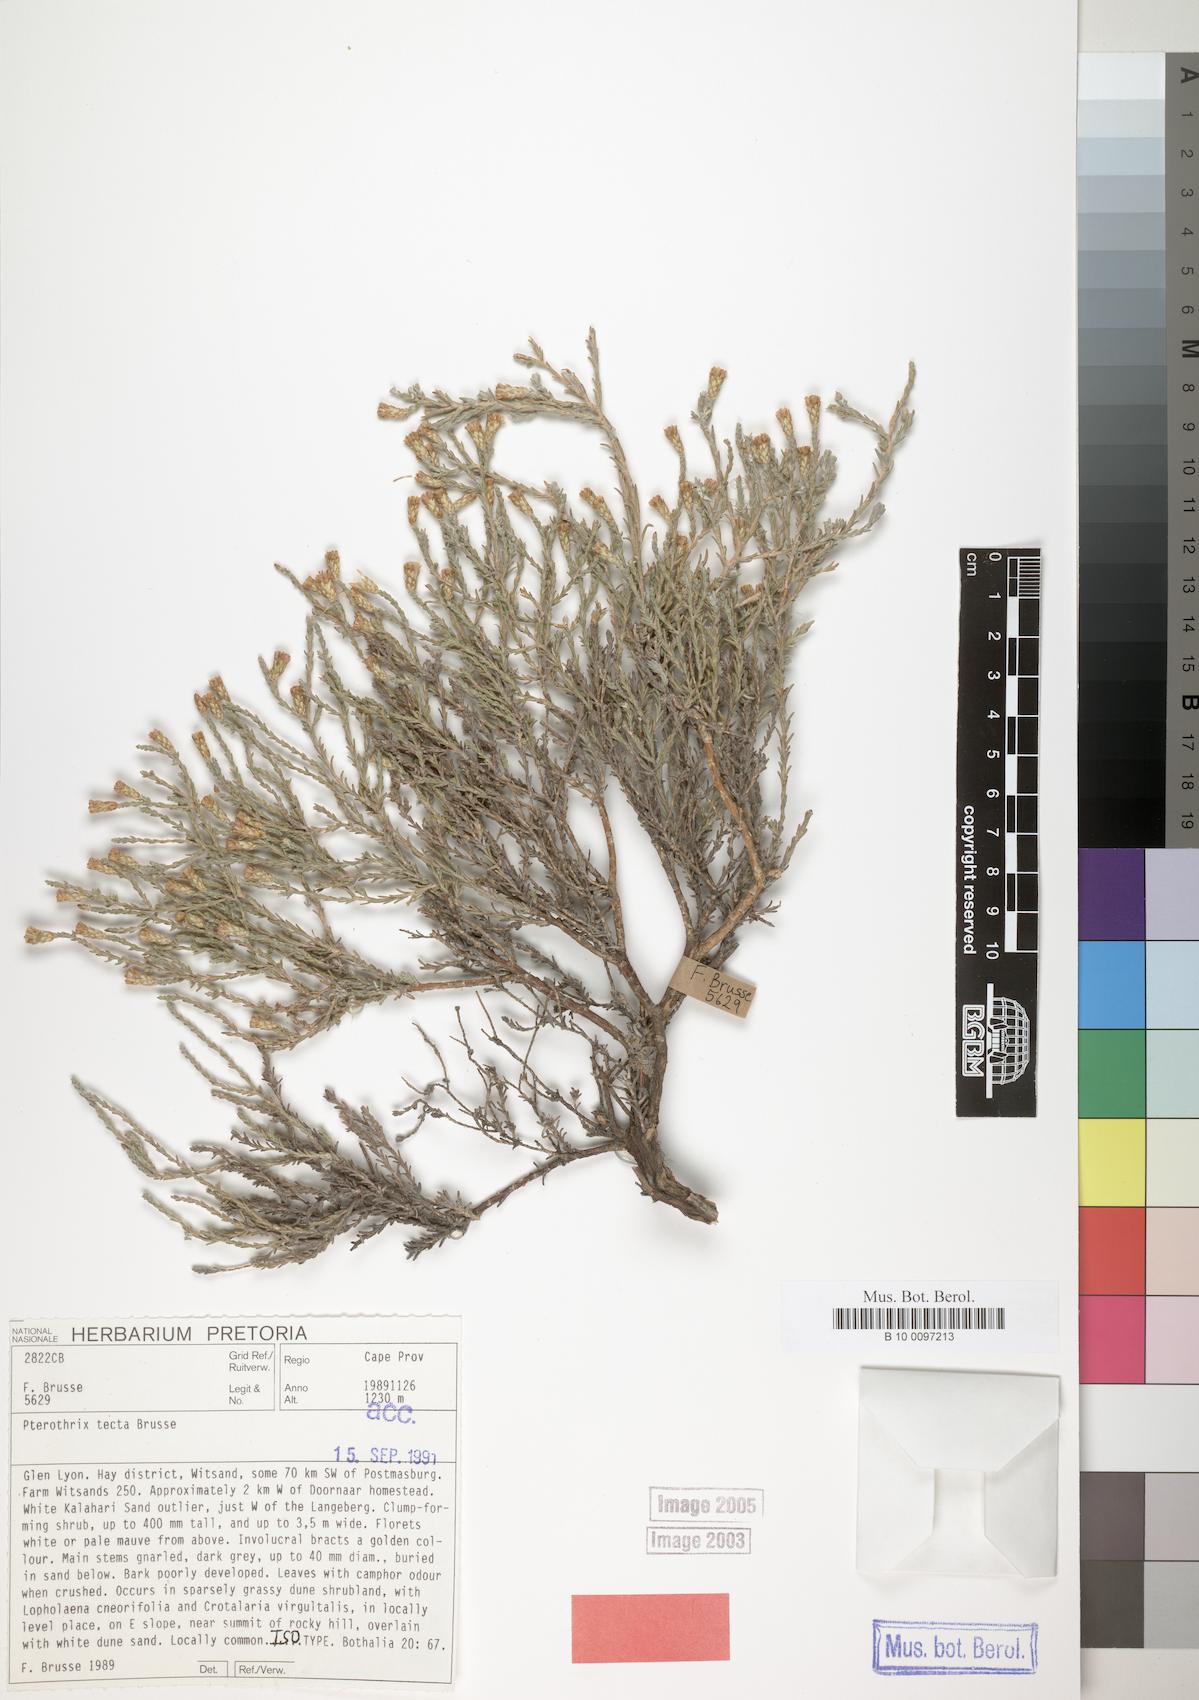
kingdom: Plantae
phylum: Tracheophyta
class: Magnoliopsida
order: Asterales
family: Asteraceae
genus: Amphiglossa
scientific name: Amphiglossa tecta
